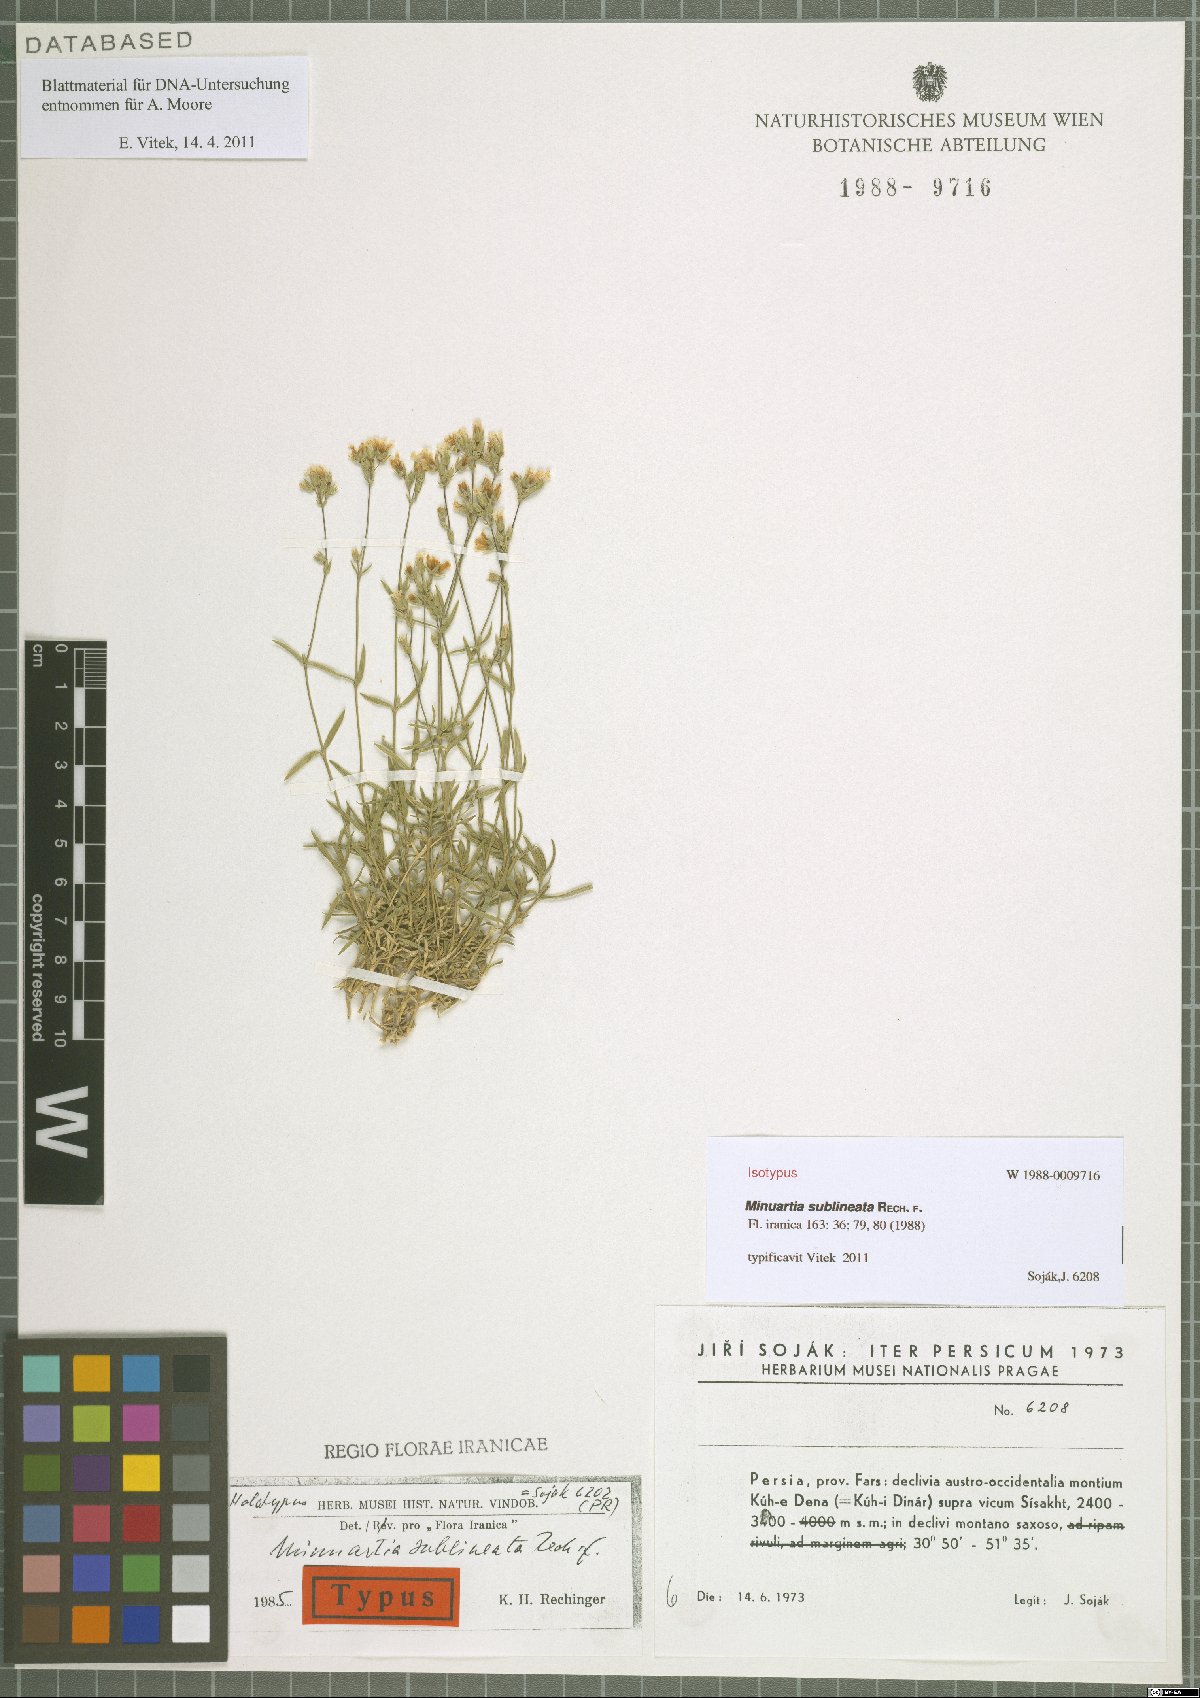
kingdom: Plantae
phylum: Tracheophyta
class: Magnoliopsida
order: Caryophyllales
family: Caryophyllaceae
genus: Sabulina
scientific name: Sabulina sublineata
